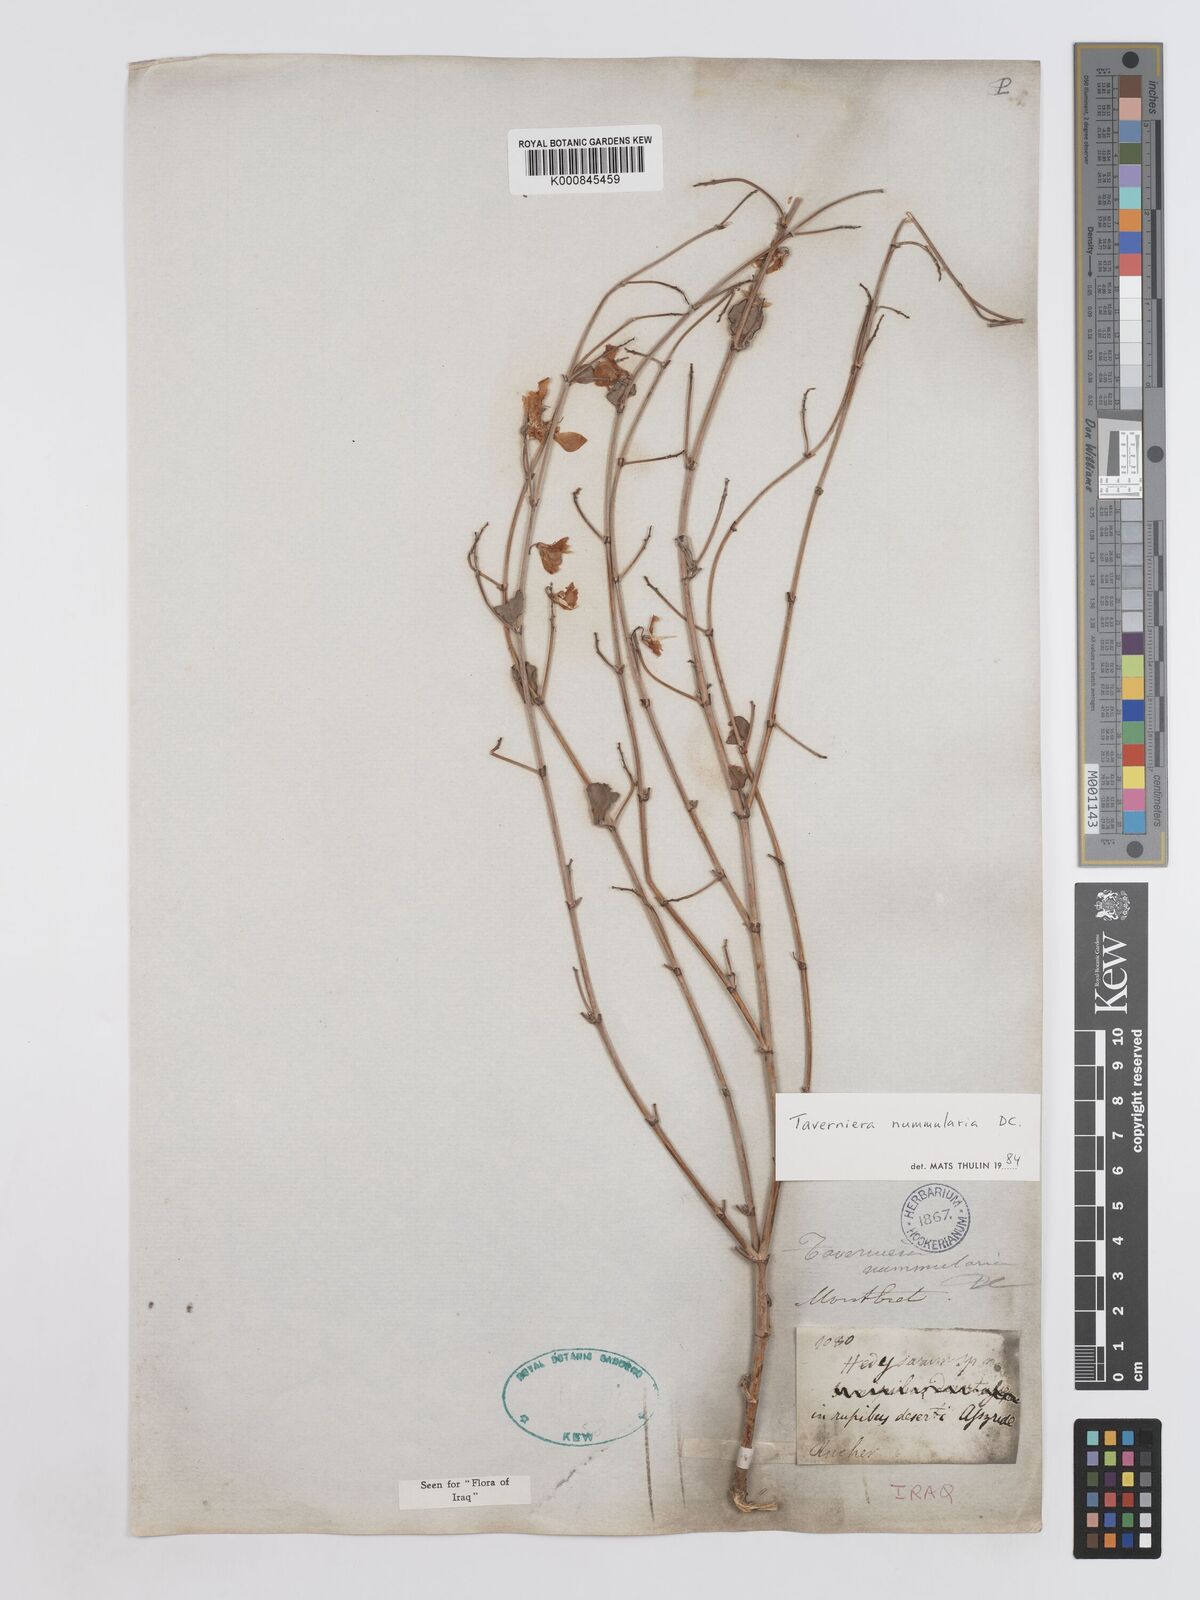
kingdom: Plantae
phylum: Tracheophyta
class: Magnoliopsida
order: Fabales
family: Fabaceae
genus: Taverniera
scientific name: Taverniera nummularia
